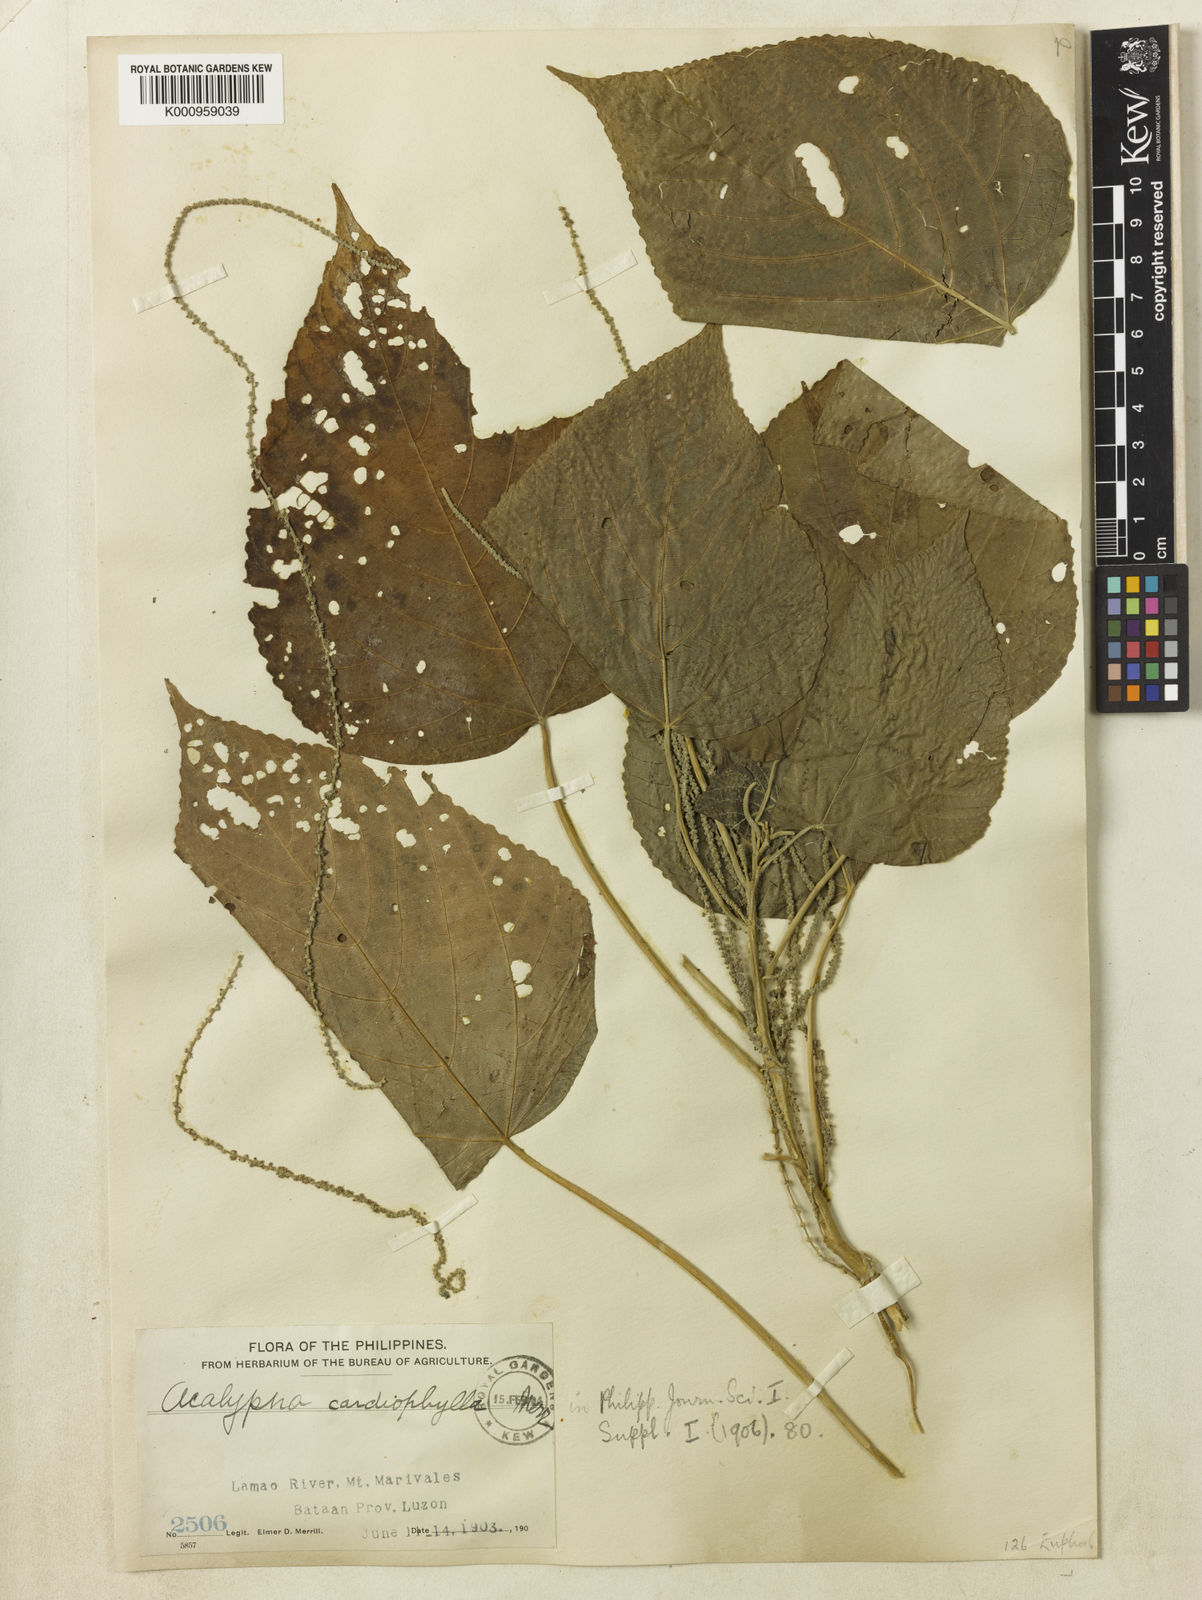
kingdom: Plantae
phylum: Tracheophyta
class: Magnoliopsida
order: Malpighiales
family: Euphorbiaceae
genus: Acalypha
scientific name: Acalypha caturus
